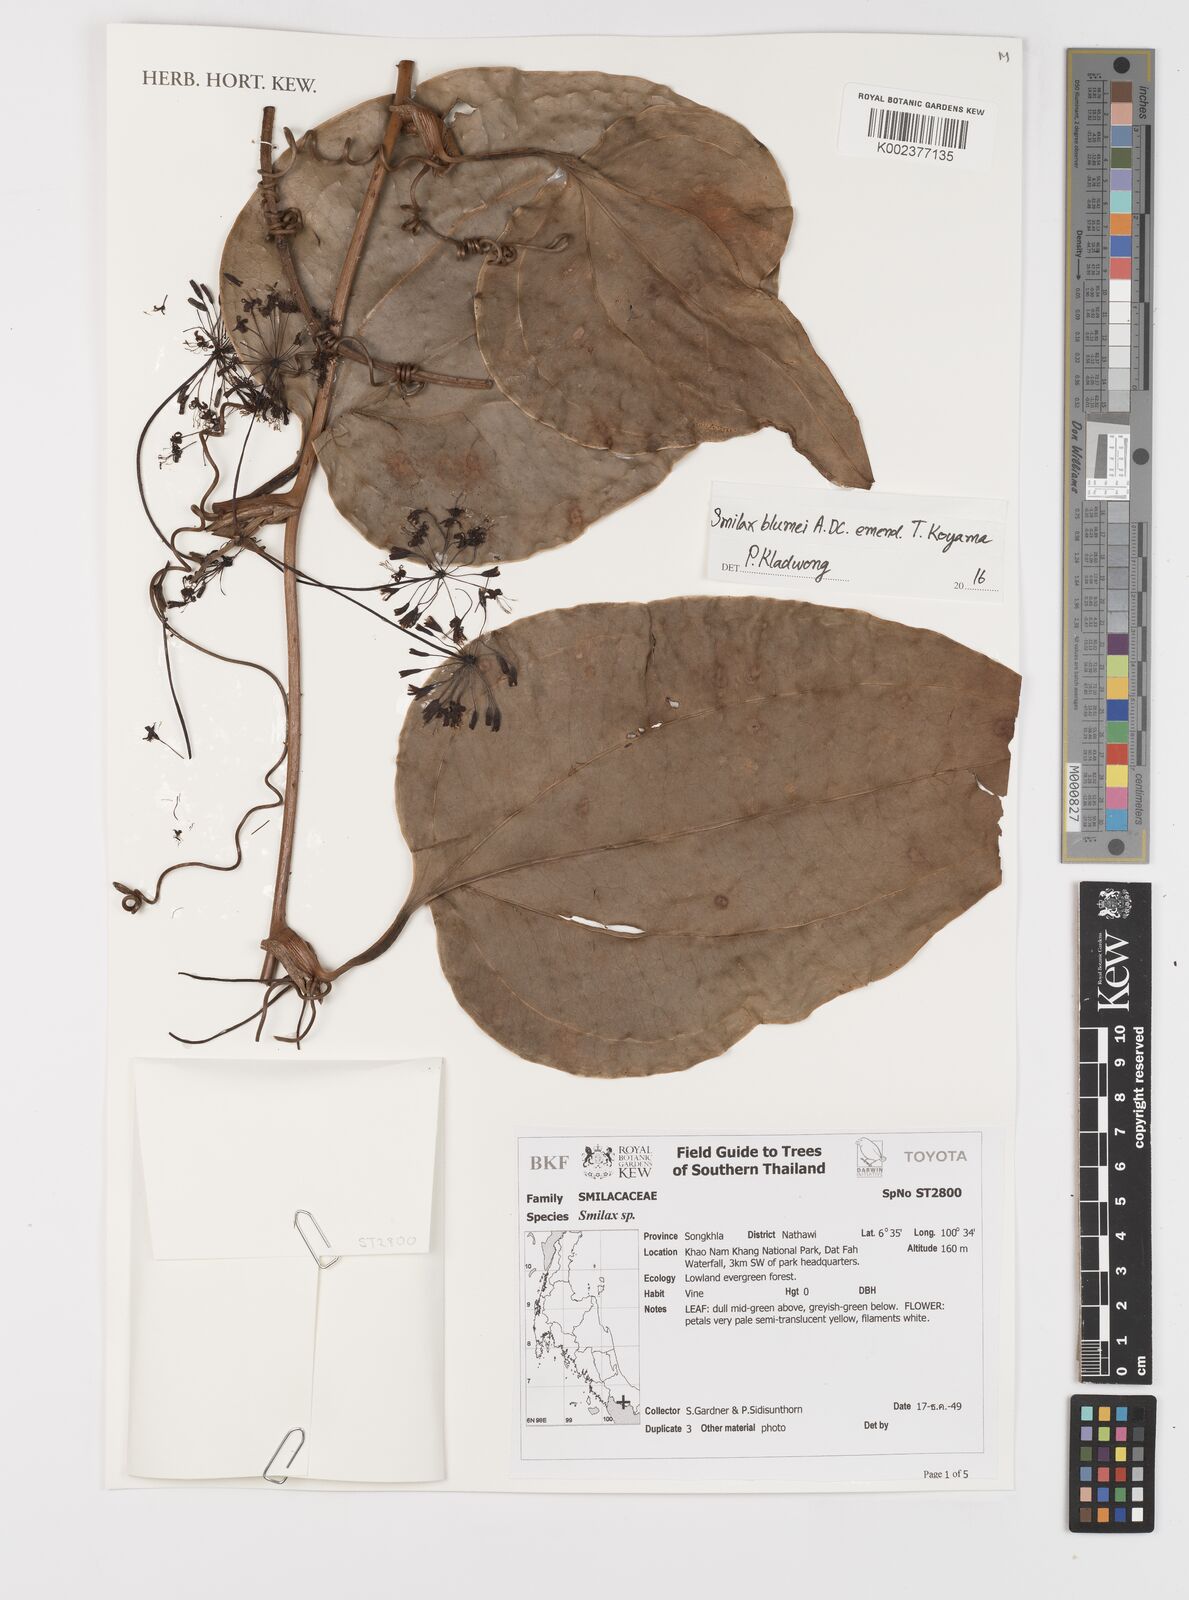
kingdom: Plantae
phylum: Tracheophyta
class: Liliopsida
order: Liliales
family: Smilacaceae
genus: Smilax
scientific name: Smilax blumei
